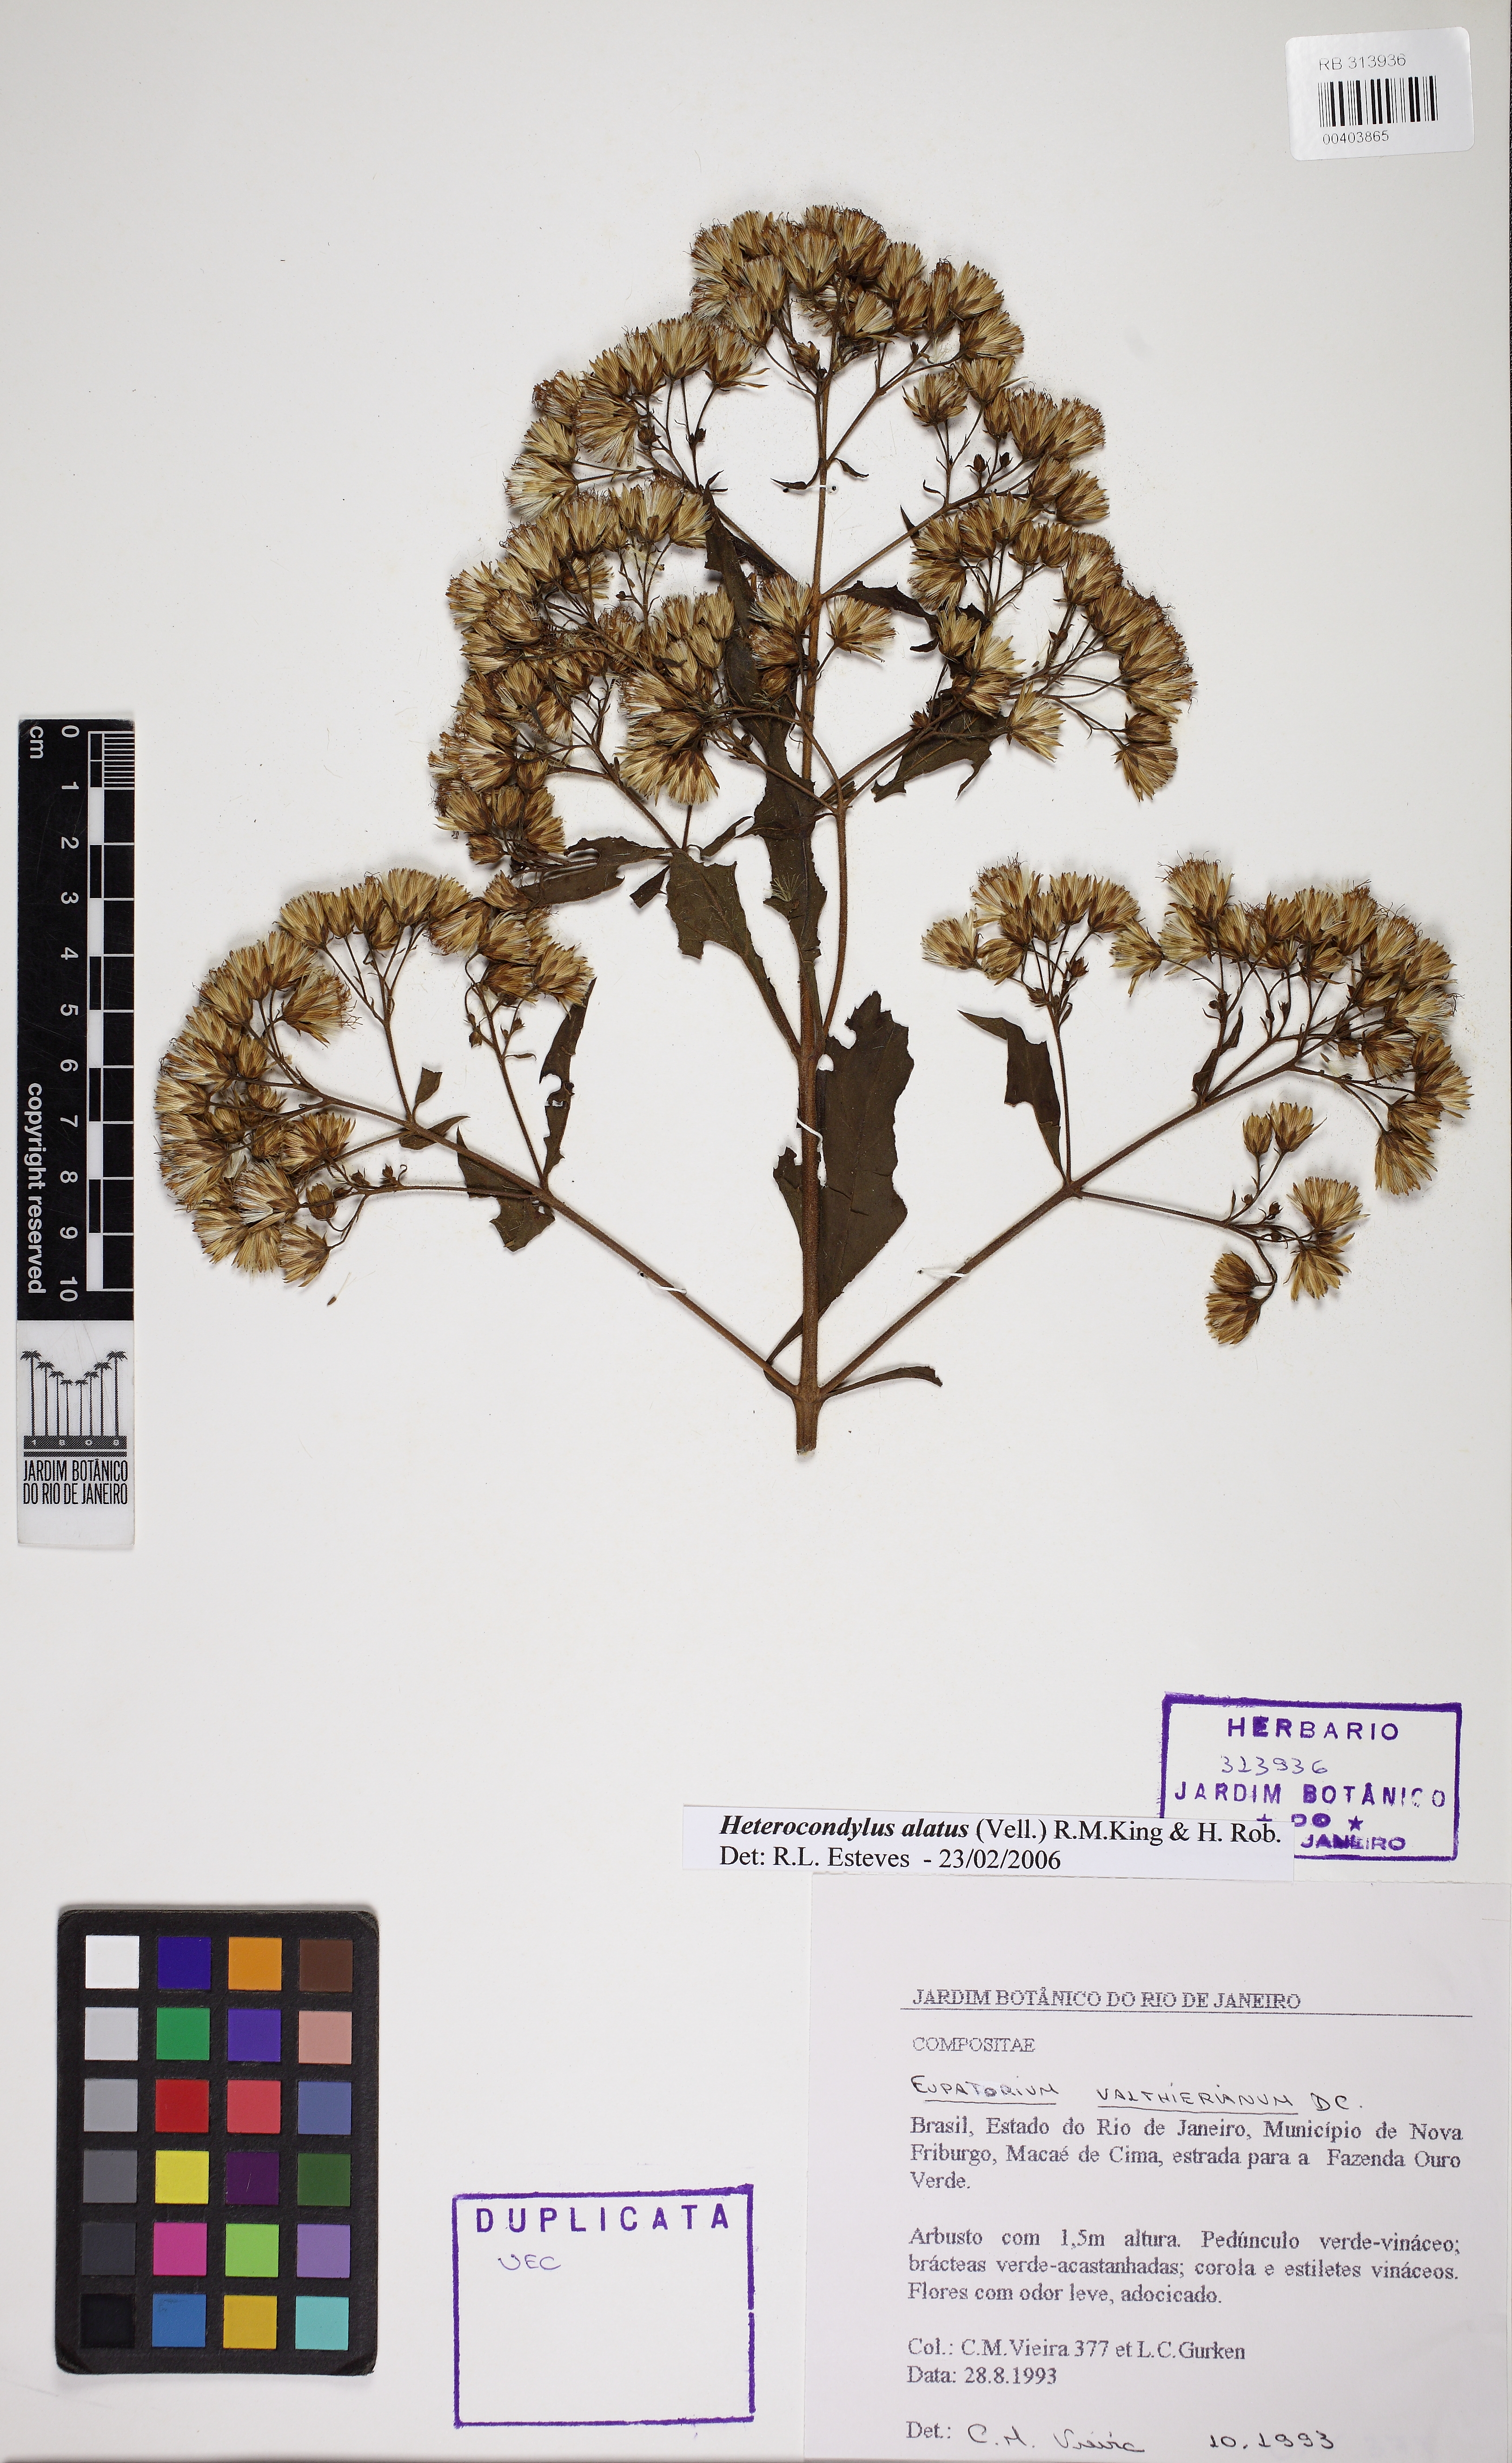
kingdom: Plantae
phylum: Tracheophyta
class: Magnoliopsida
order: Asterales
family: Asteraceae
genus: Heterocondylus
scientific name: Heterocondylus alatus
